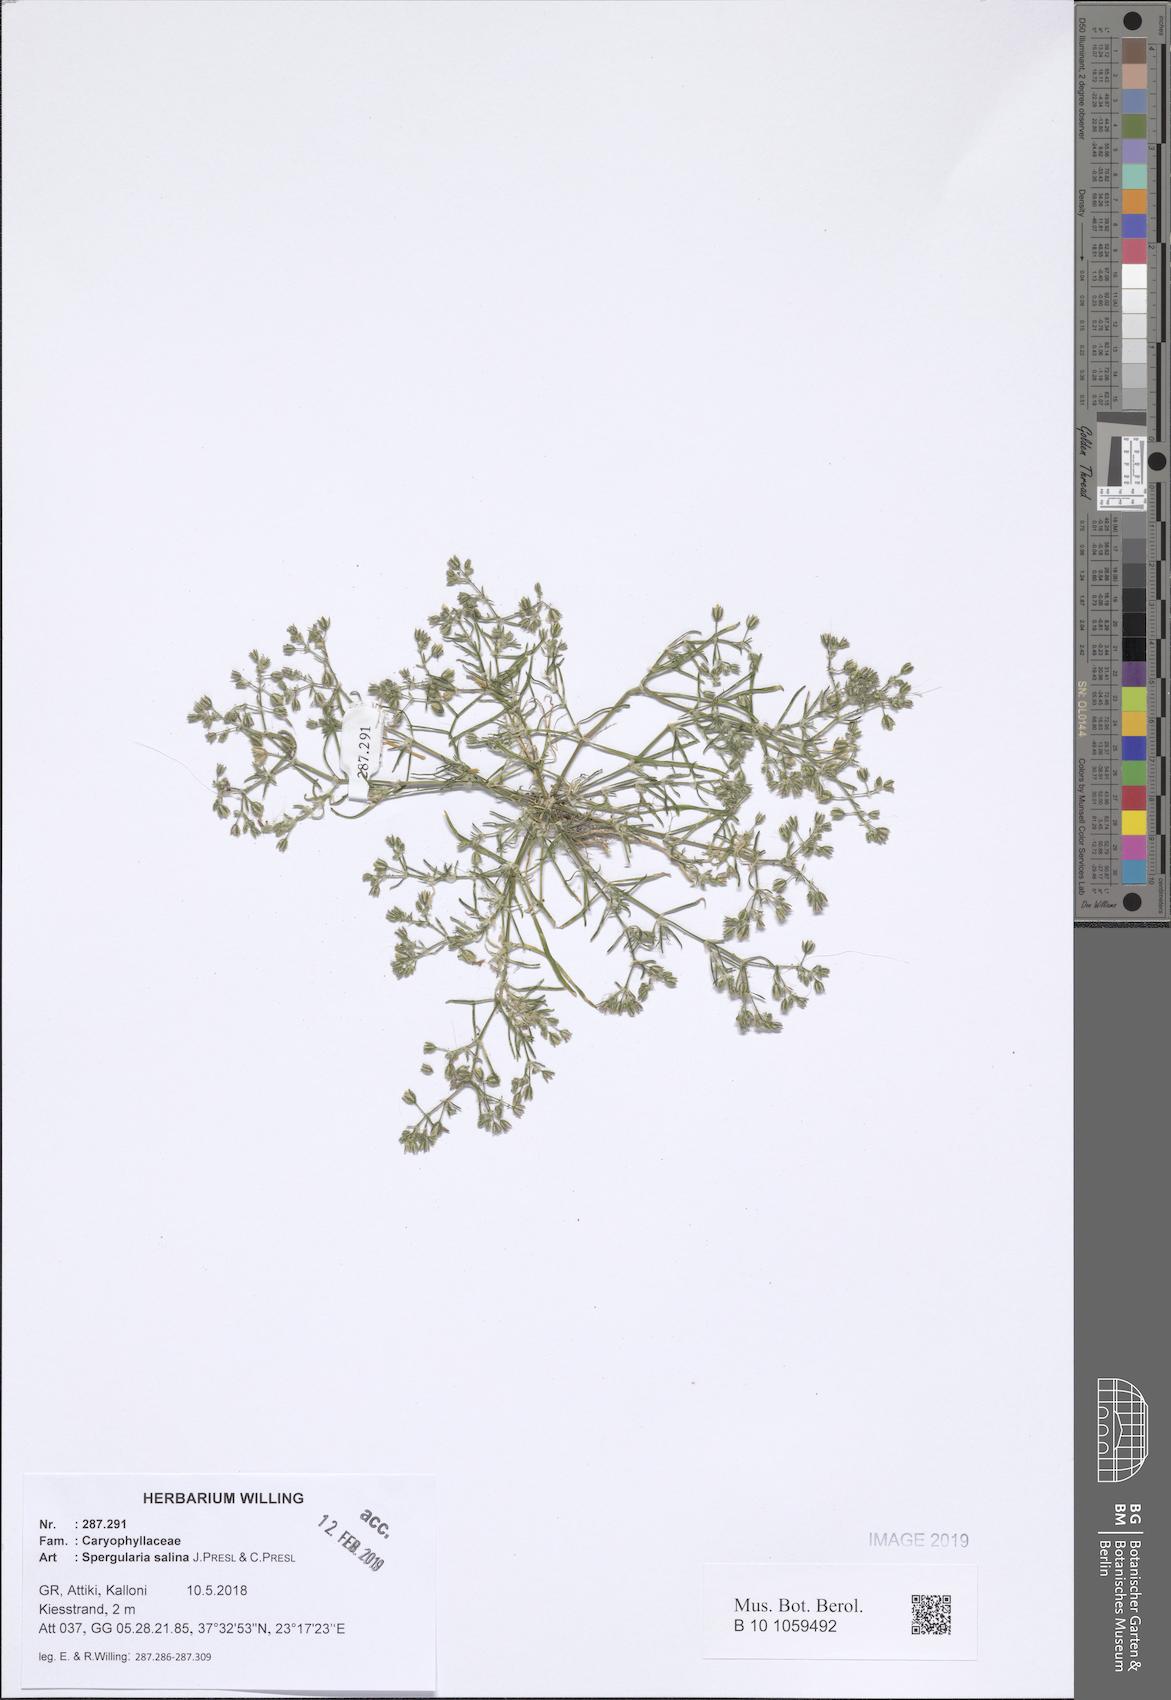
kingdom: Plantae
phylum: Tracheophyta
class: Magnoliopsida
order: Caryophyllales
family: Caryophyllaceae
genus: Spergularia
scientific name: Spergularia marina
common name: Lesser sea-spurrey
